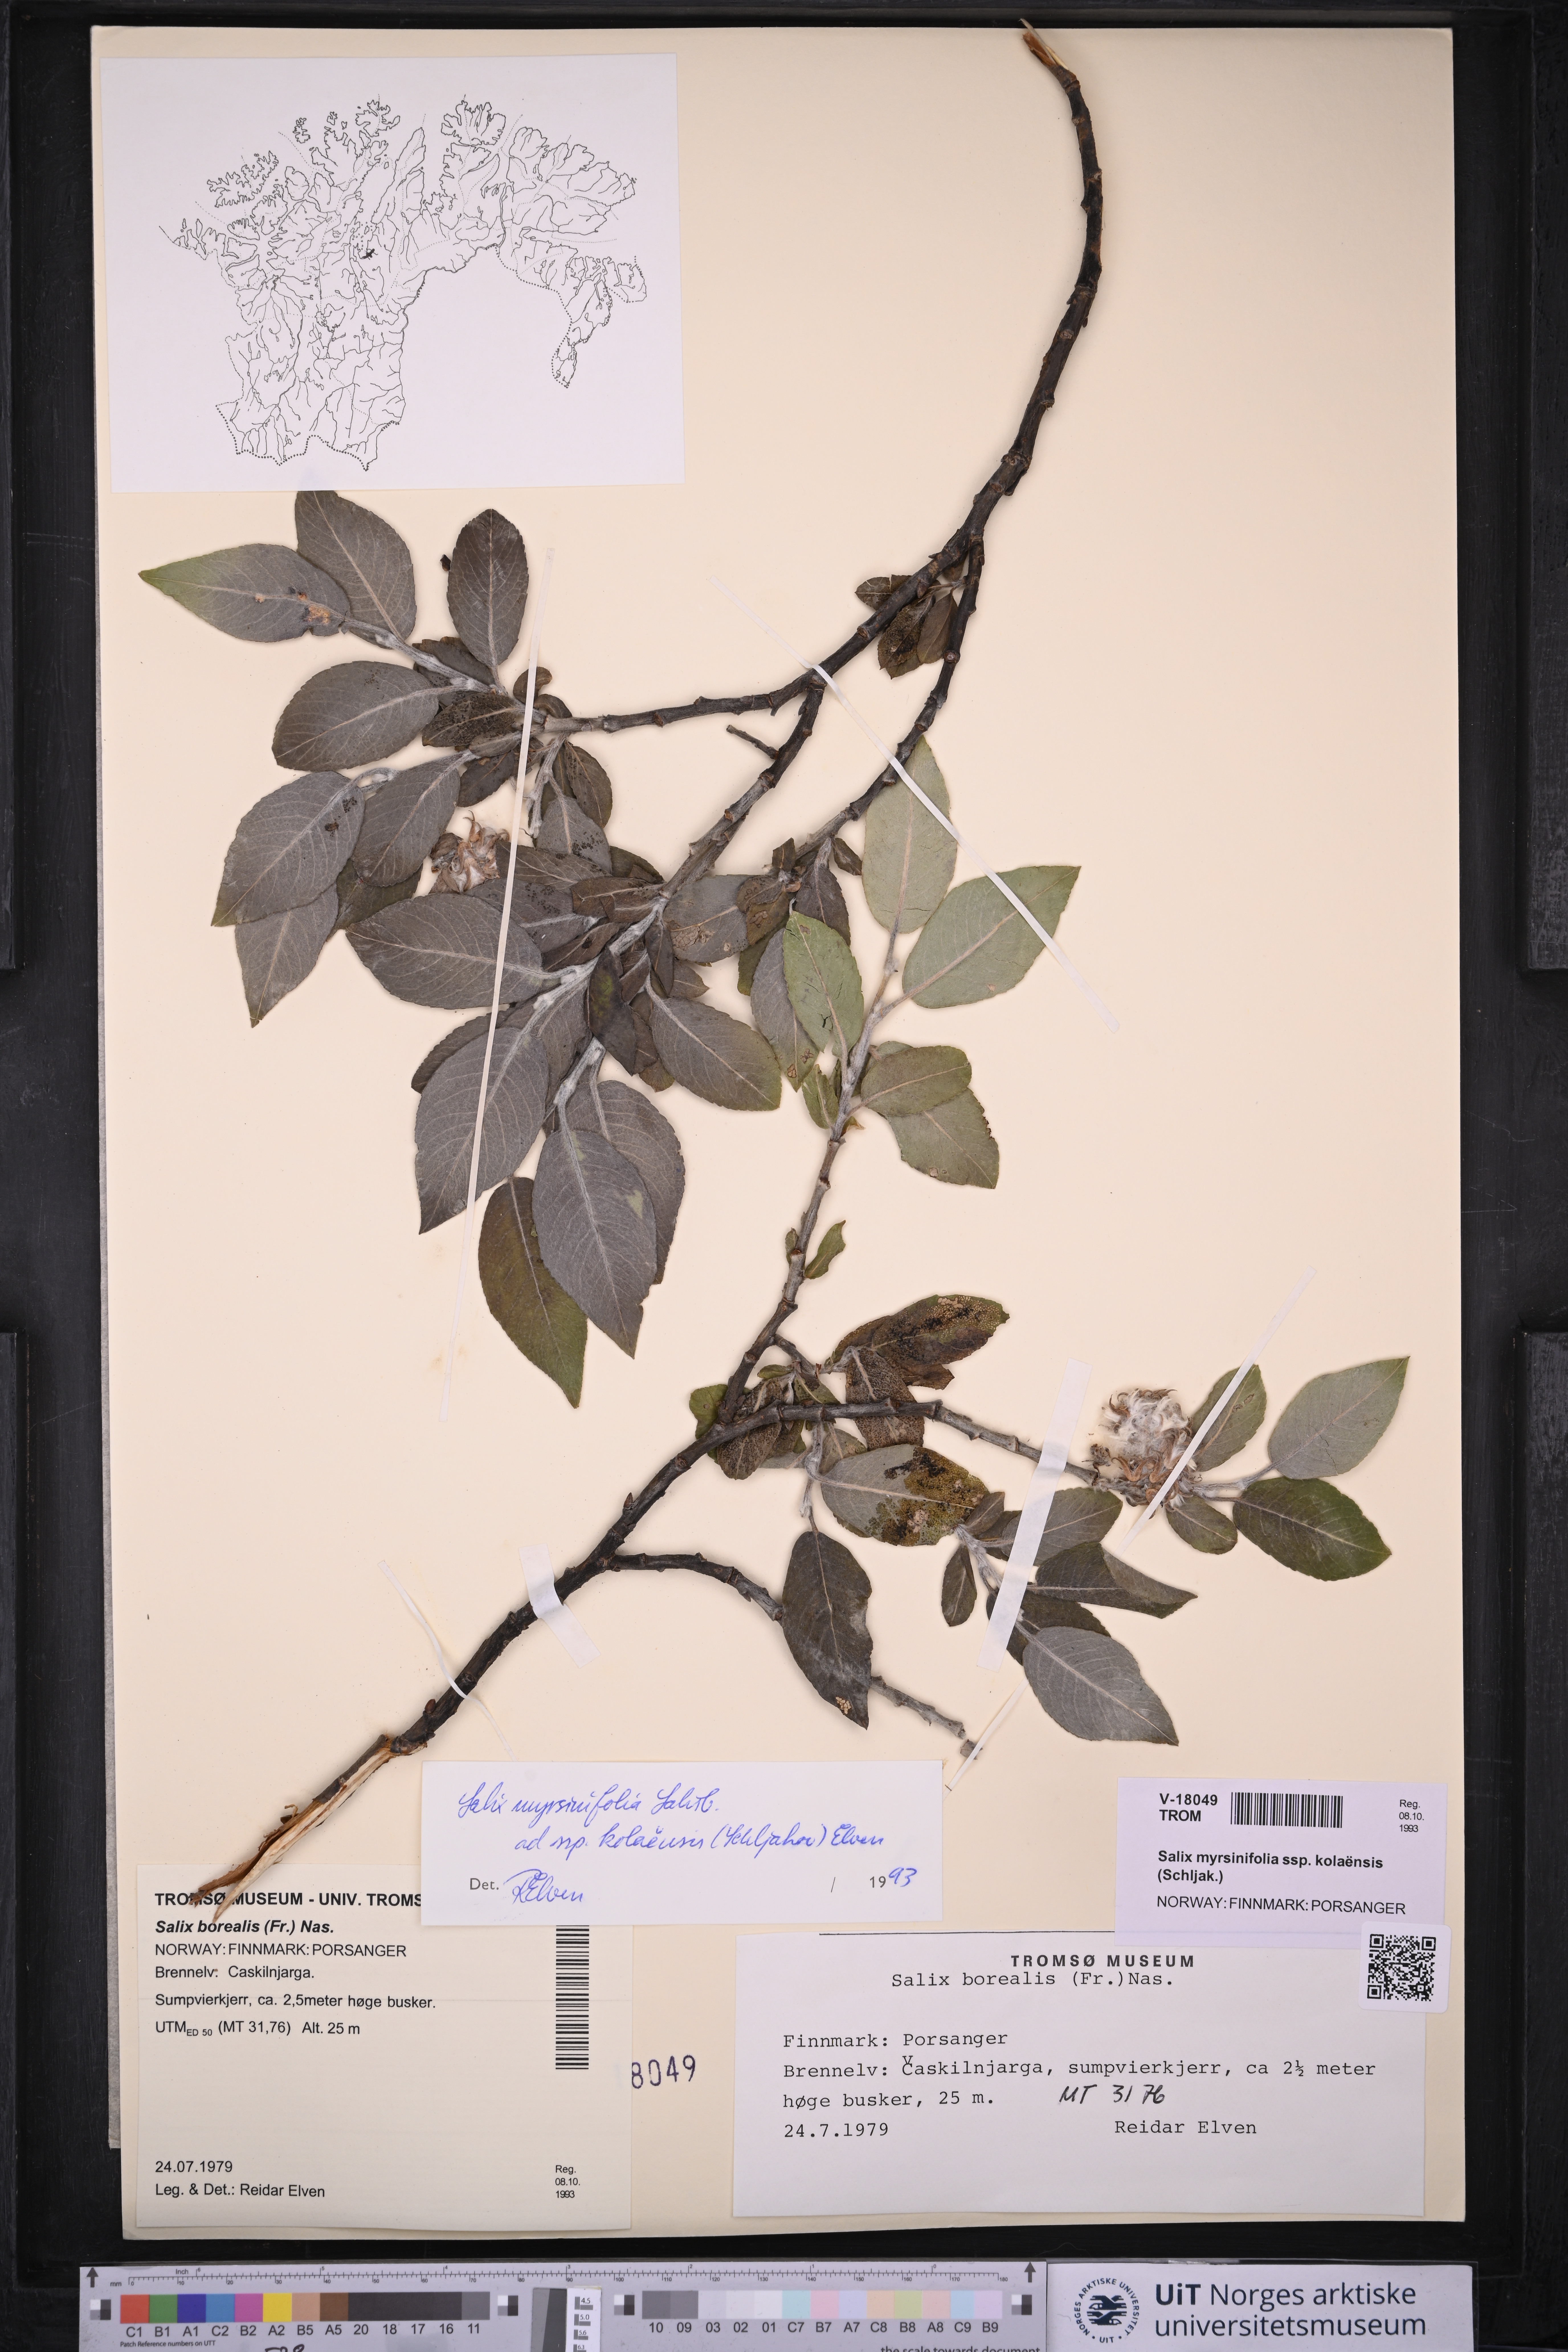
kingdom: Plantae
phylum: Tracheophyta
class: Magnoliopsida
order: Malpighiales
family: Salicaceae
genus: Salix
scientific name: Salix myrsinifolia
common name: Dark-leaved willow
